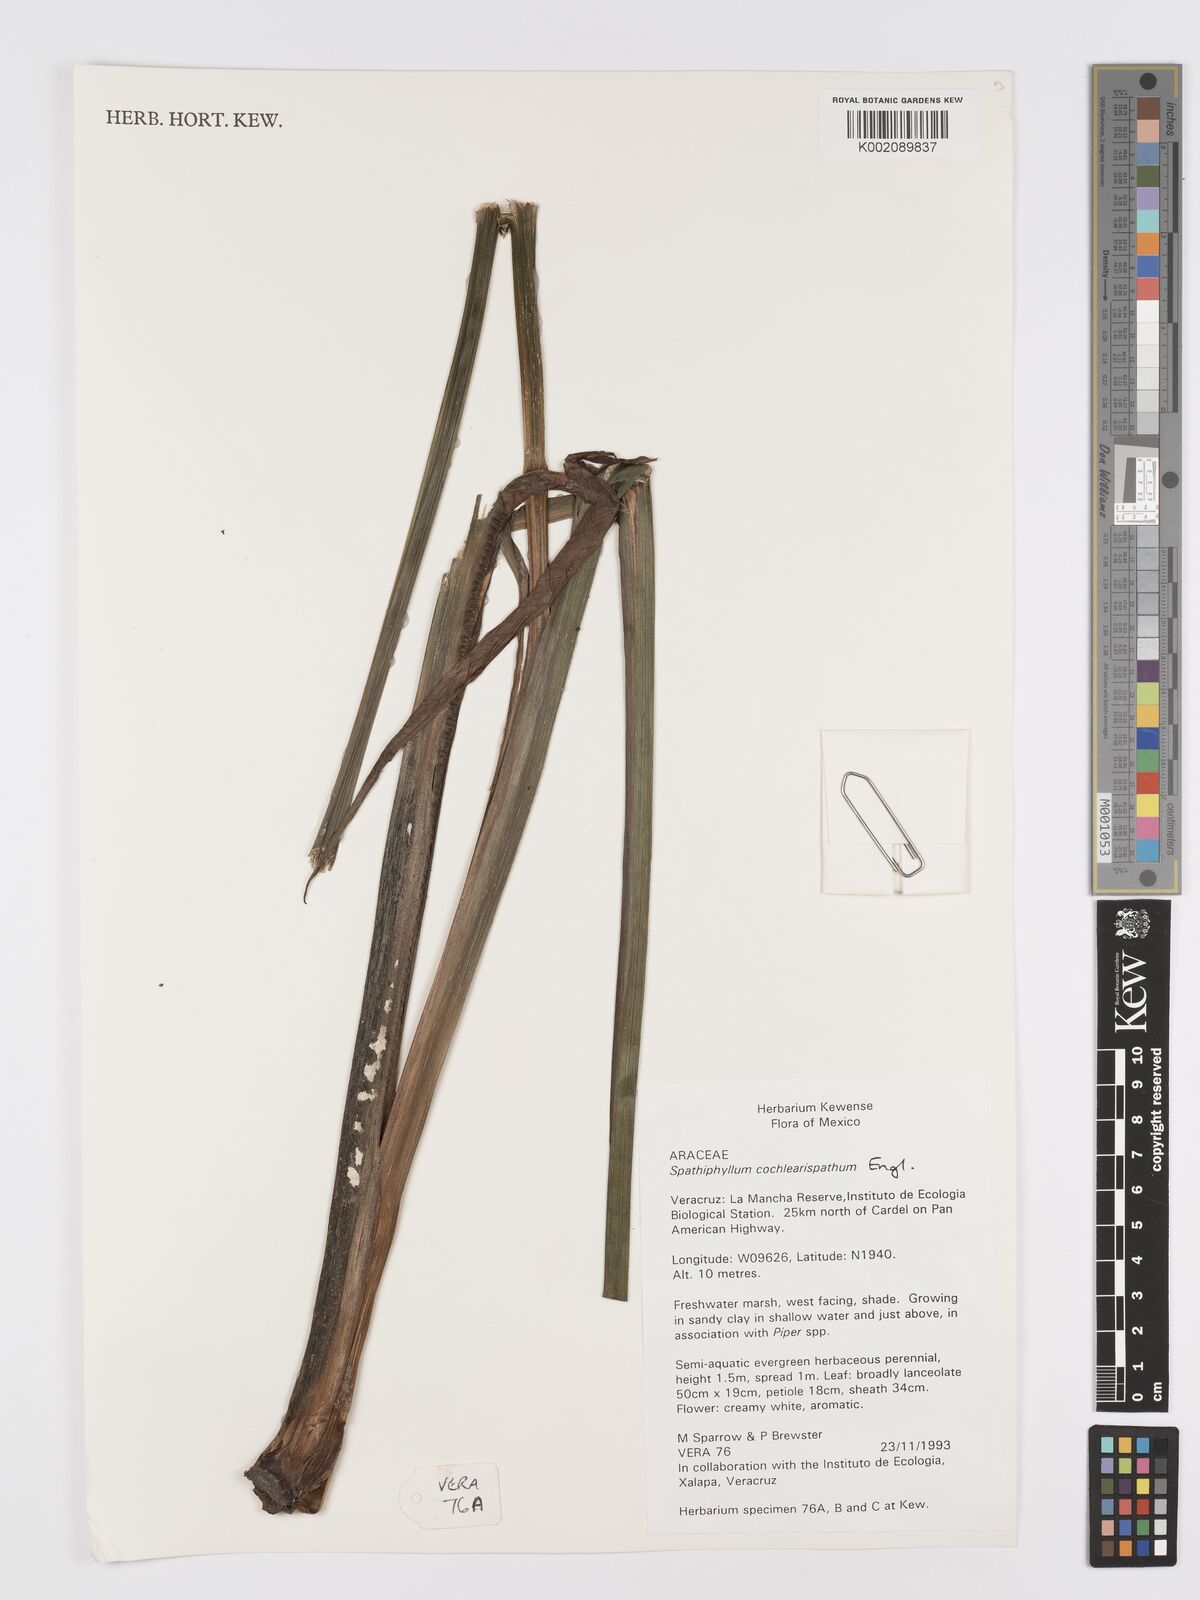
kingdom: Plantae
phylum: Tracheophyta
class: Liliopsida
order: Alismatales
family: Araceae
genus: Spathiphyllum
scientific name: Spathiphyllum cochlearispathum
